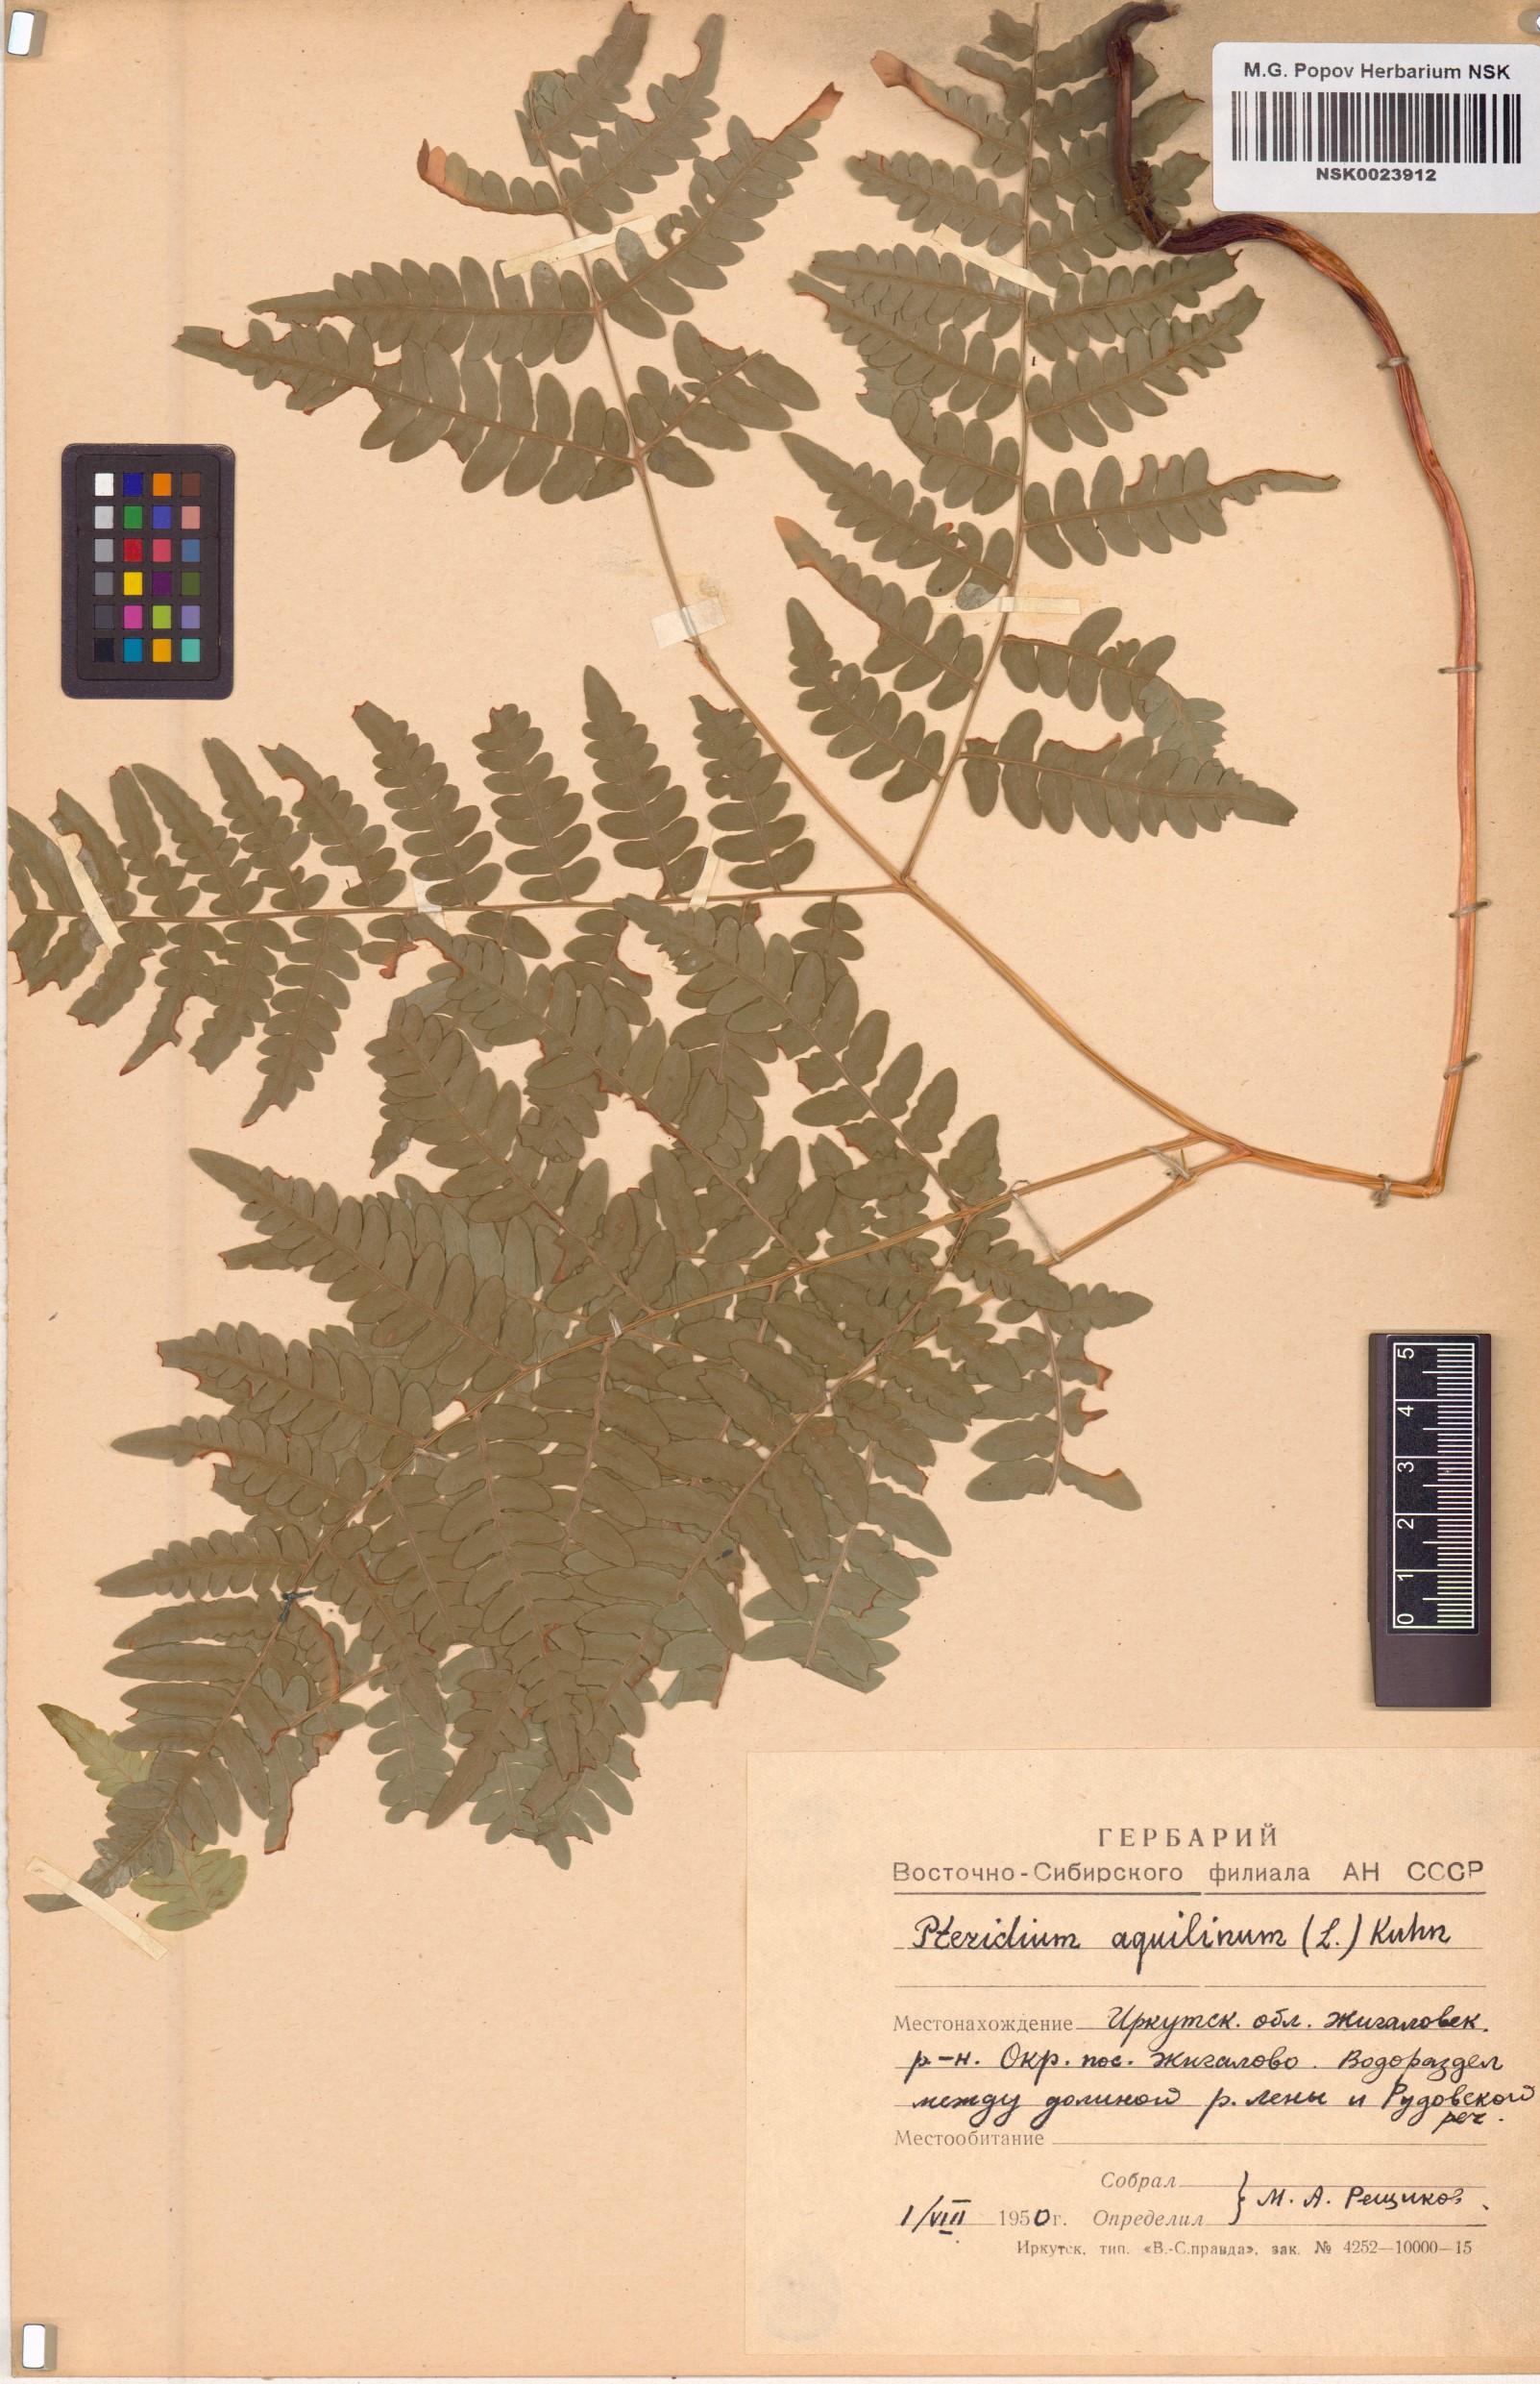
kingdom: Plantae
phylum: Tracheophyta
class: Polypodiopsida
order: Polypodiales
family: Dennstaedtiaceae
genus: Pteridium
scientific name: Pteridium aquilinum
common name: Bracken
